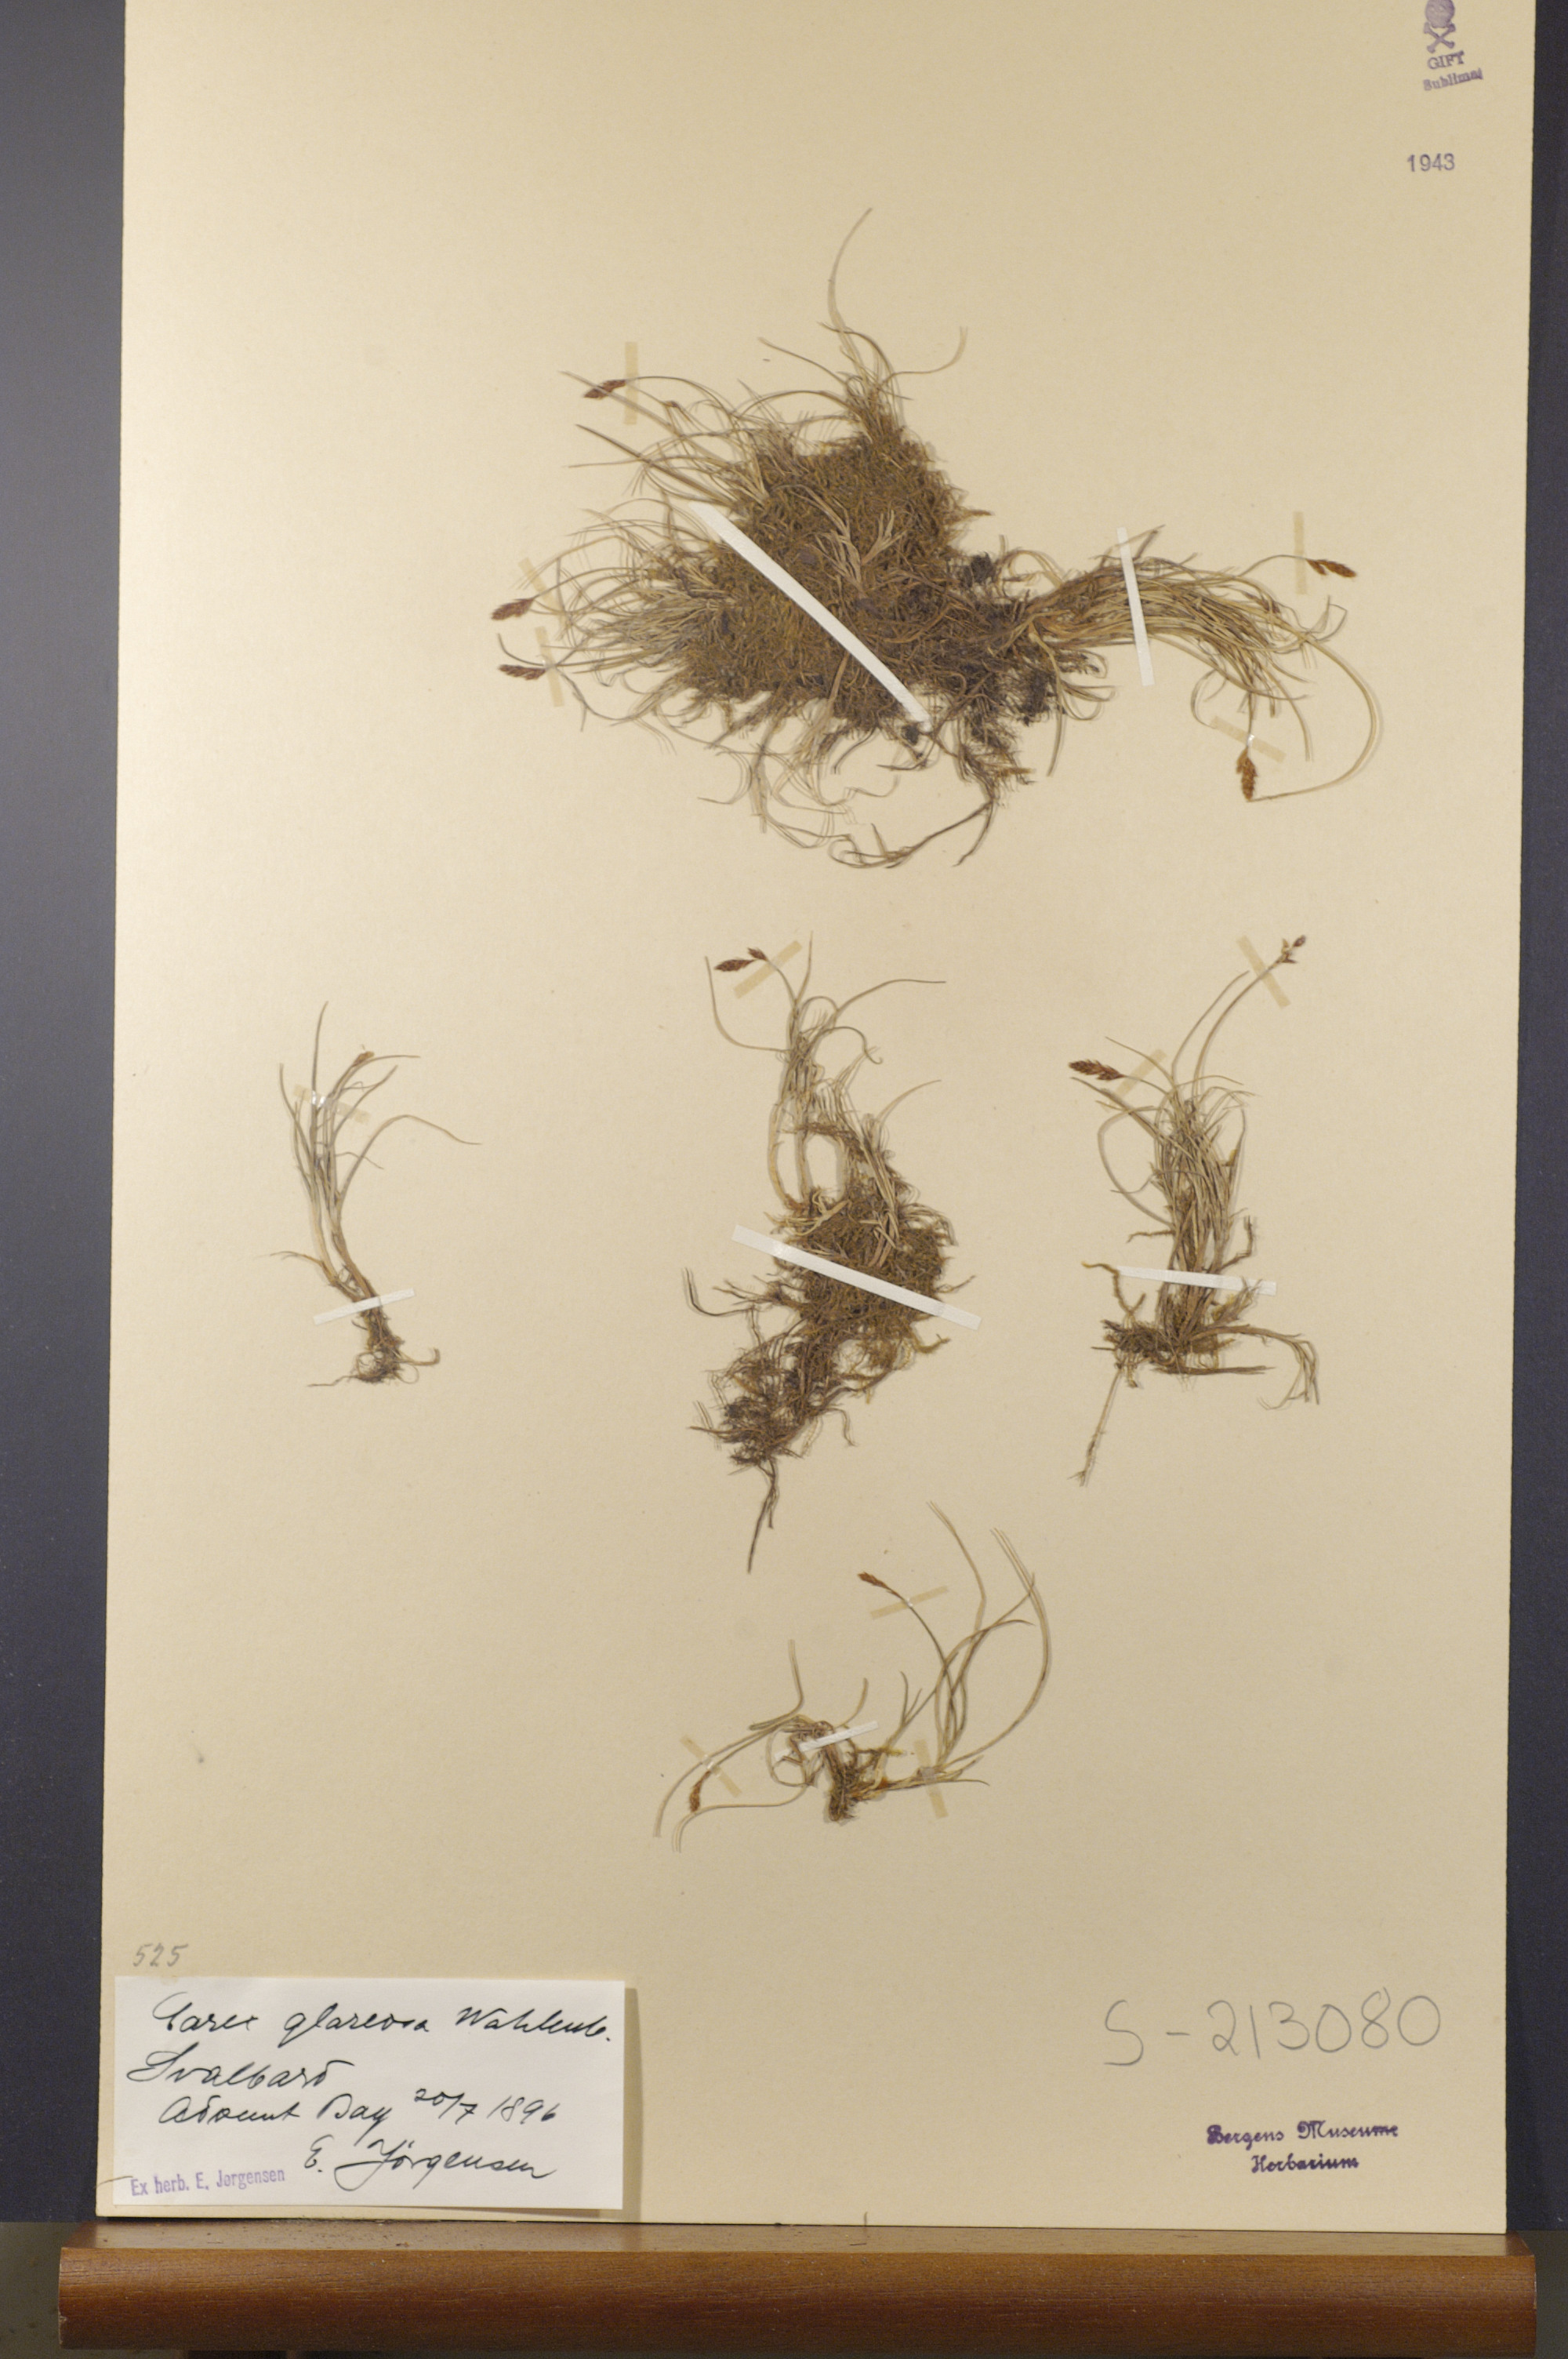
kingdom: Plantae
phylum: Tracheophyta
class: Liliopsida
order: Poales
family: Cyperaceae
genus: Carex
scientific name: Carex glareosa
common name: Clustered sedge
